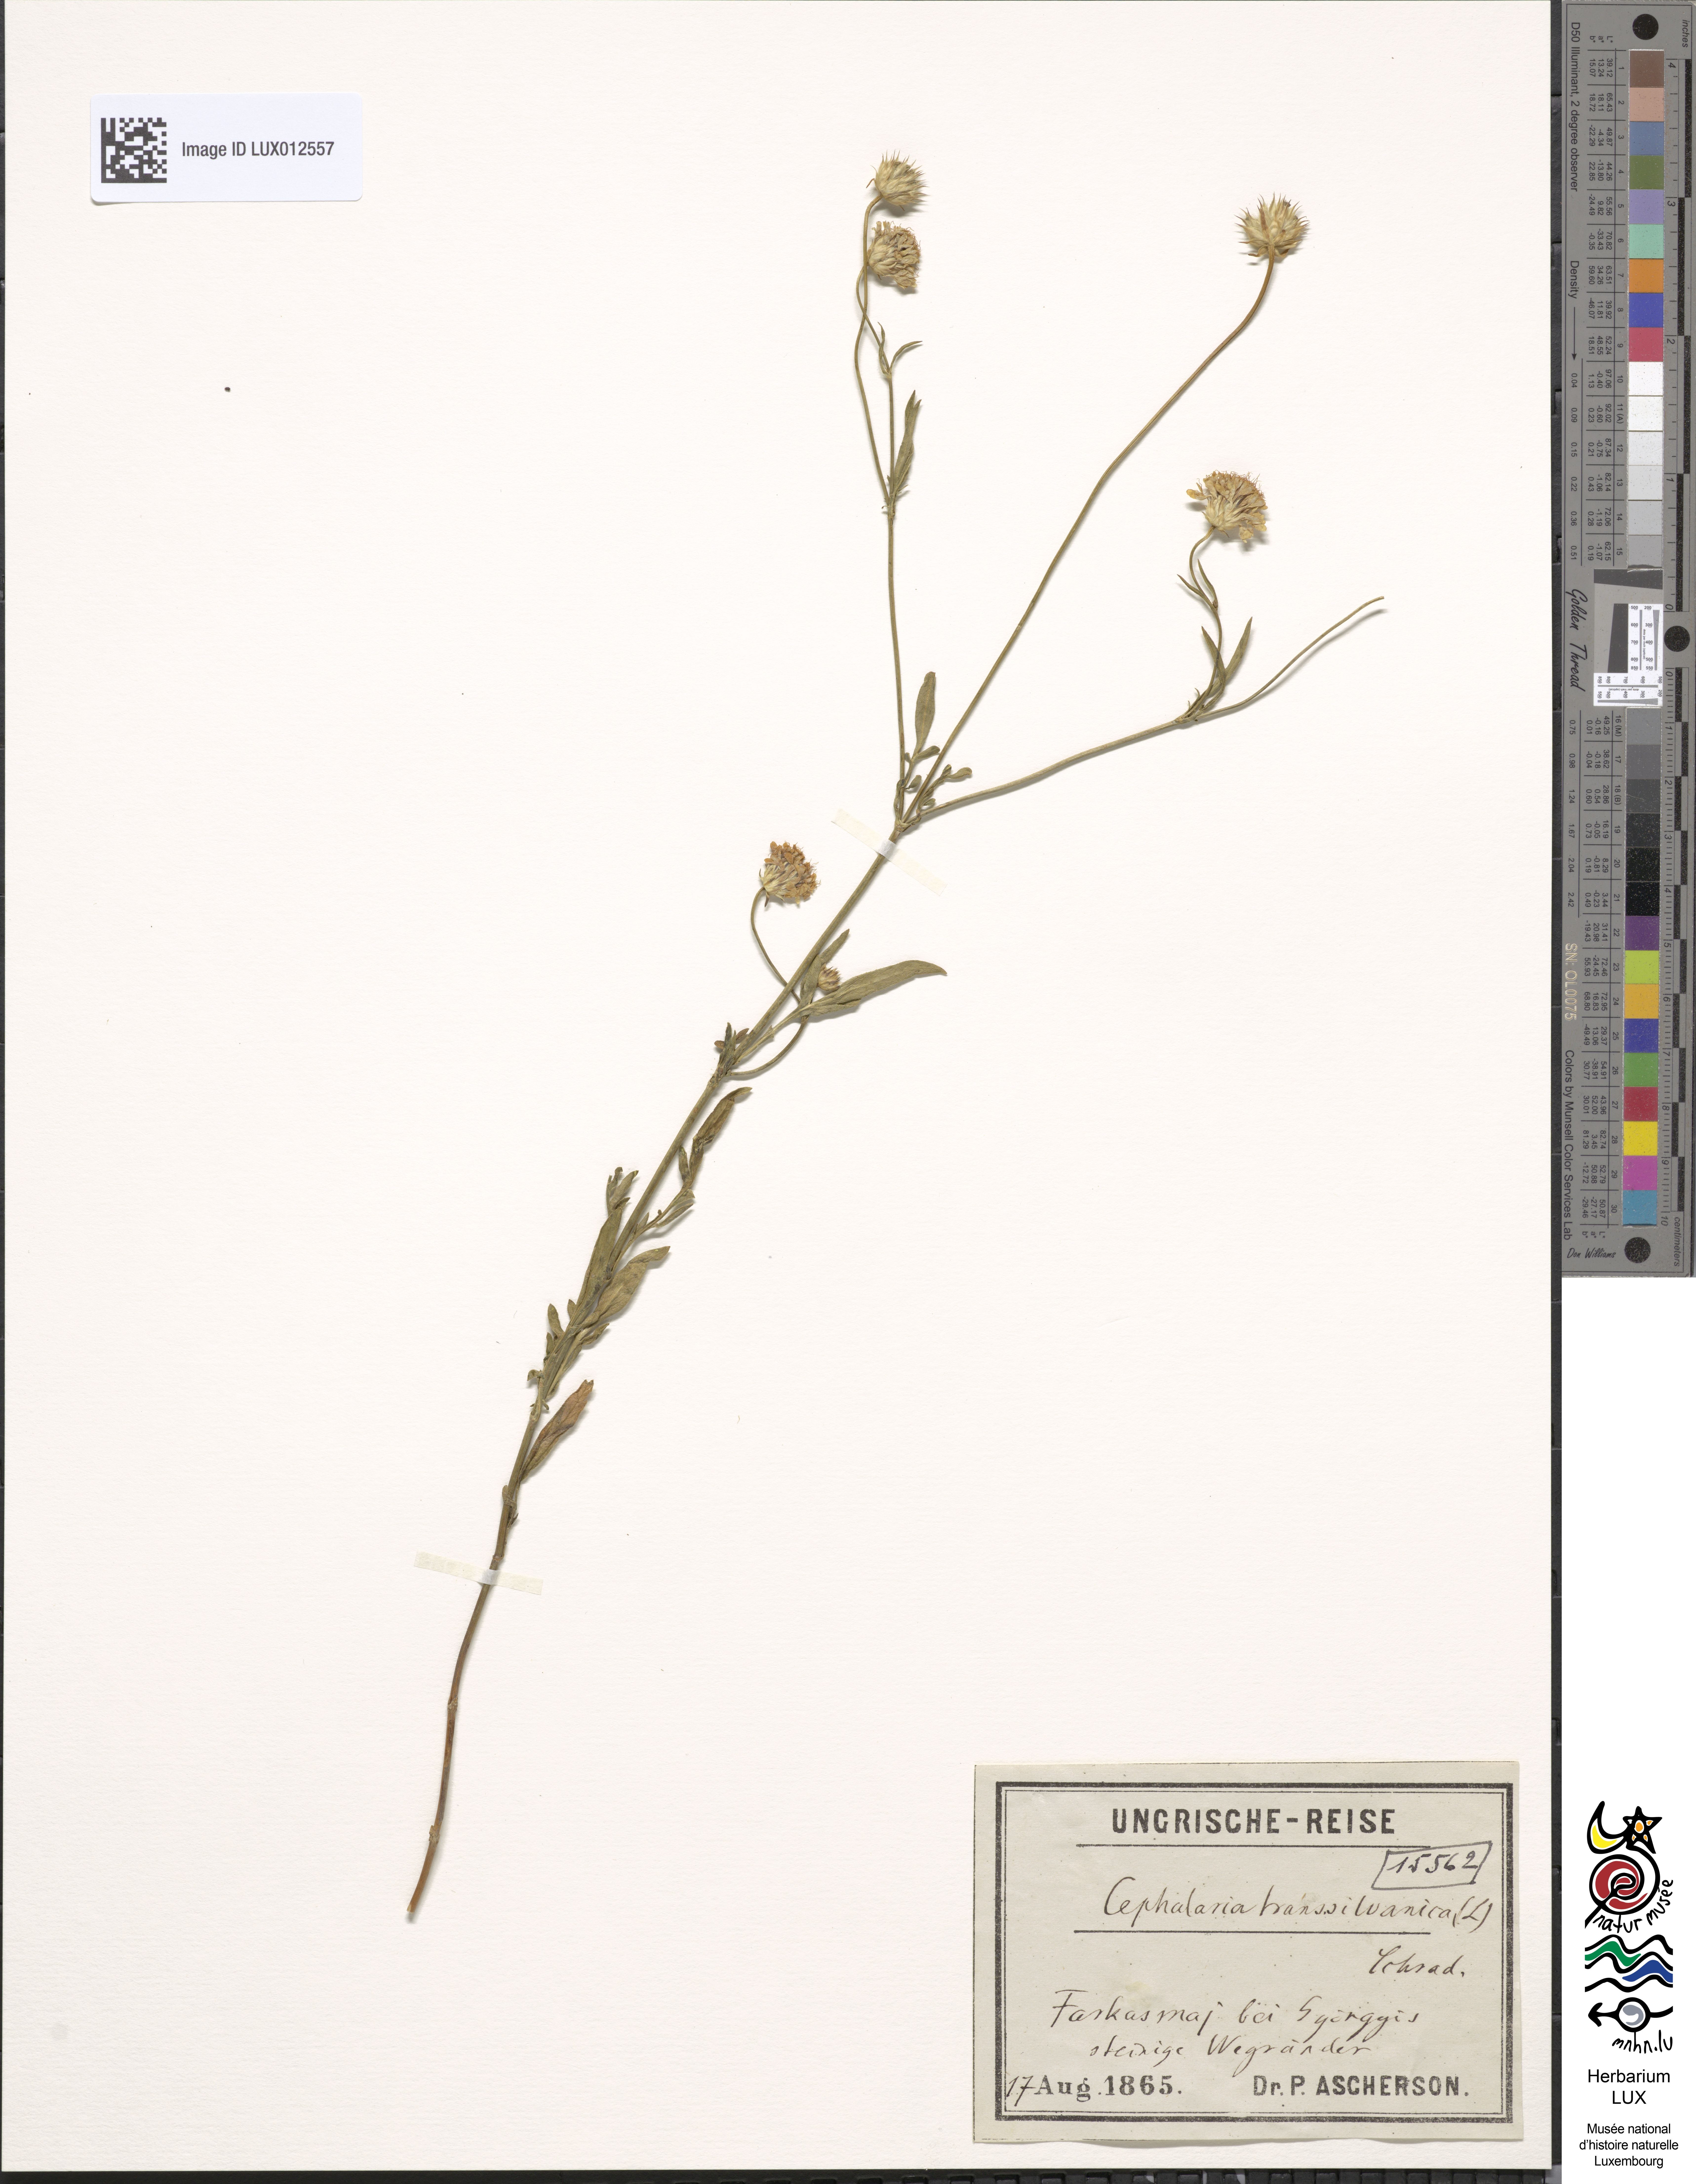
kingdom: Plantae
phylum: Tracheophyta
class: Magnoliopsida
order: Dipsacales
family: Caprifoliaceae
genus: Cephalaria
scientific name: Cephalaria transsylvanica
